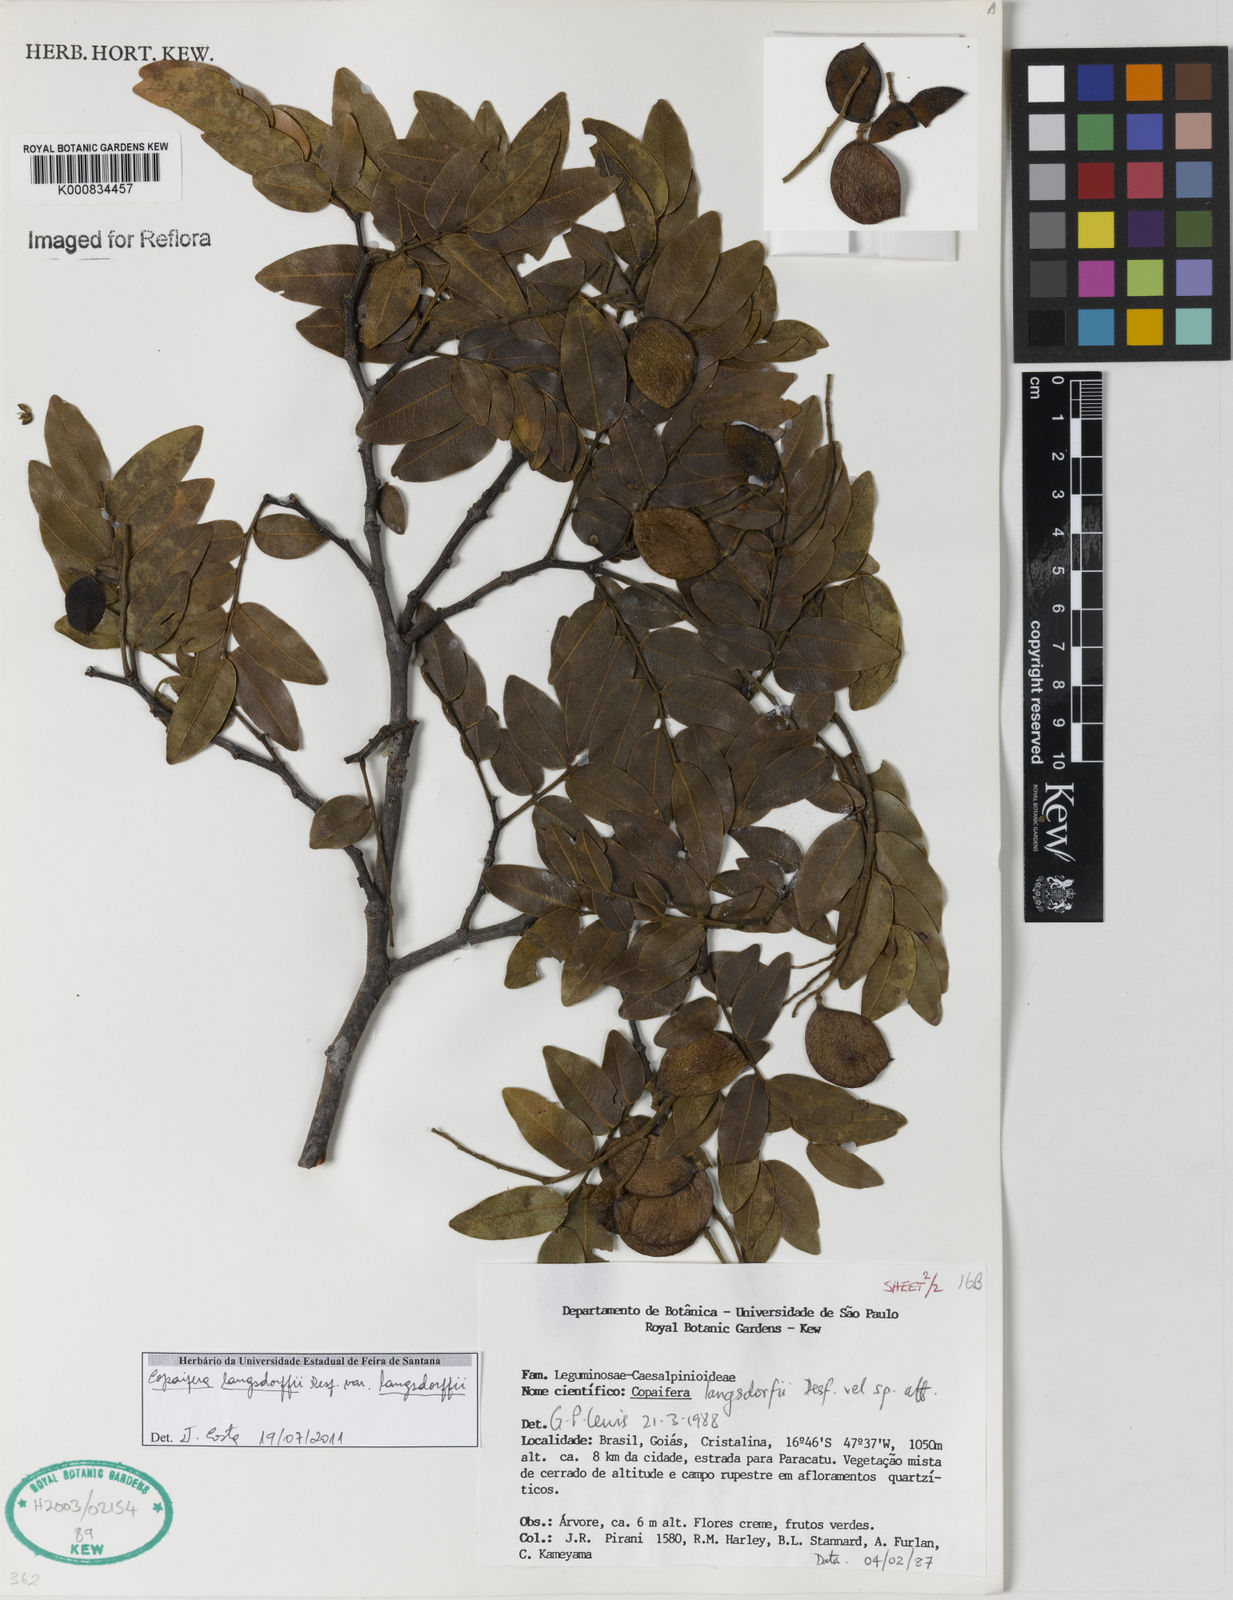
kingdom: Plantae
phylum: Tracheophyta
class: Magnoliopsida
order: Fabales
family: Fabaceae
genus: Copaifera
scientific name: Copaifera langsdorffii
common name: Brazilian diesel tree
